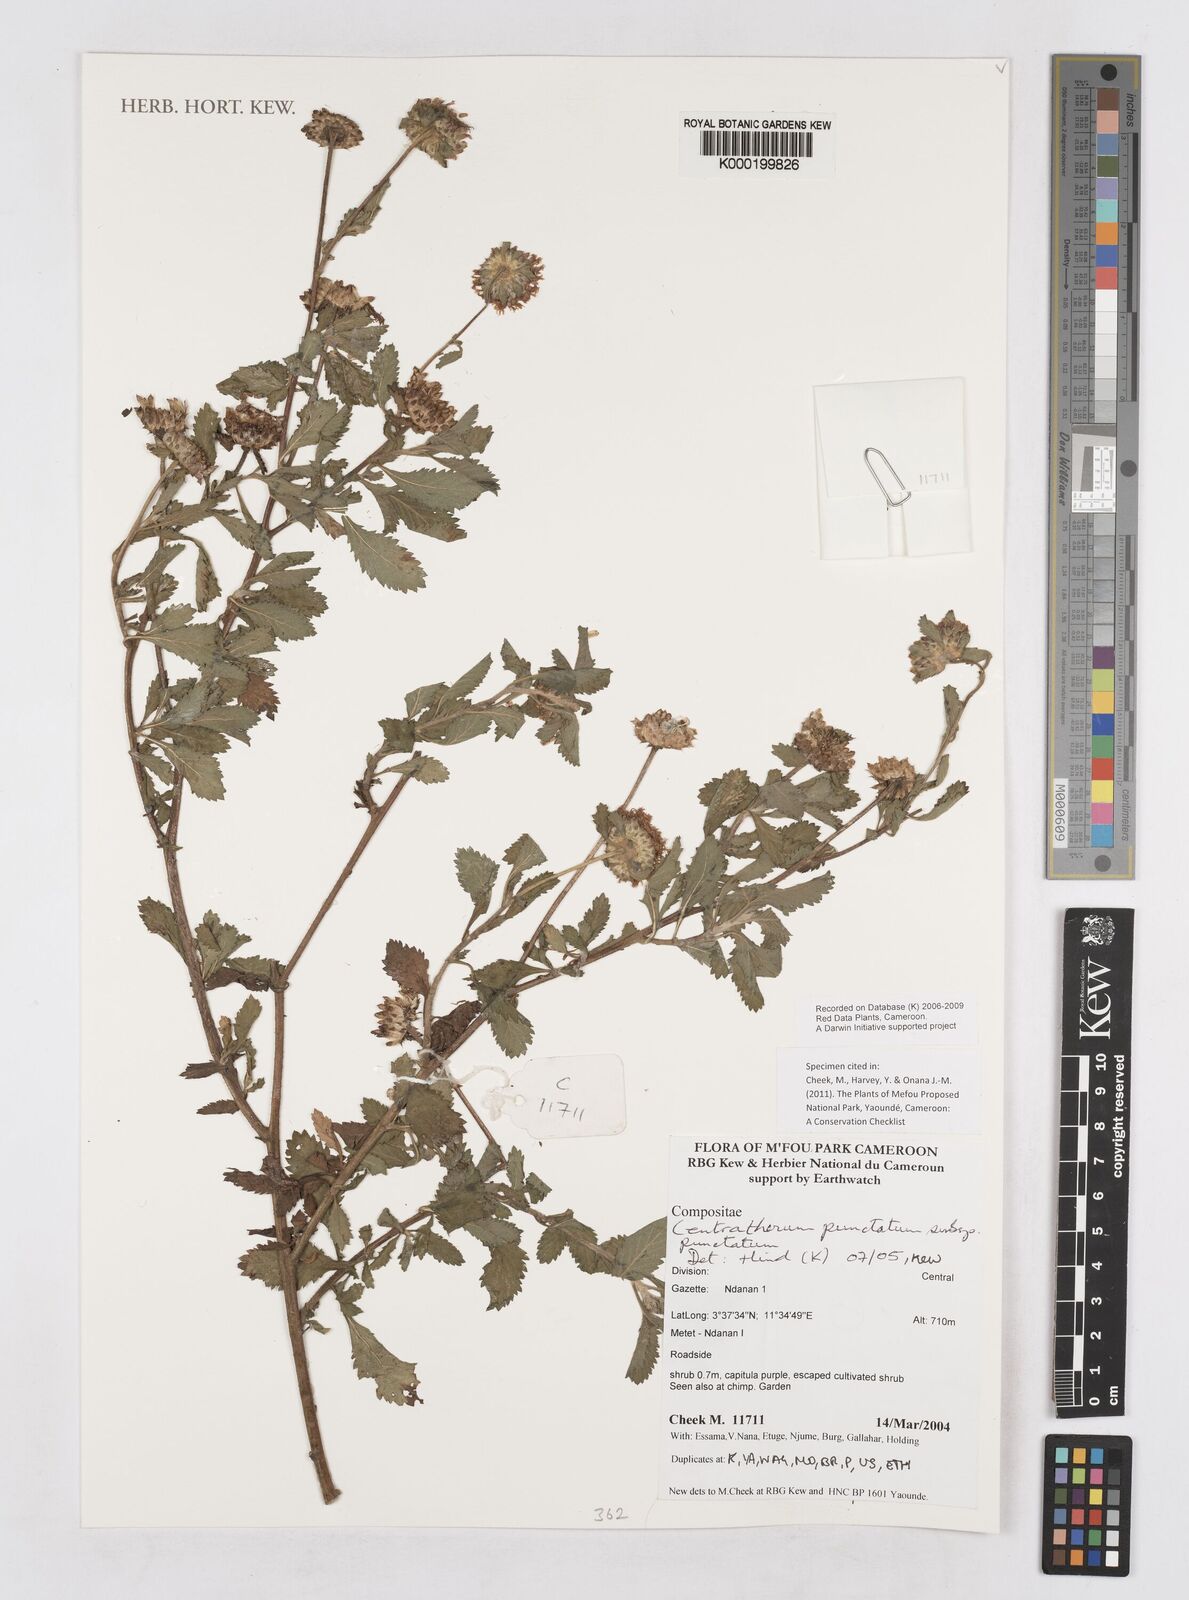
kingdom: Plantae
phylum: Tracheophyta
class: Magnoliopsida
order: Asterales
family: Asteraceae
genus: Centratherum
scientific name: Centratherum punctatum
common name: Larkdaisy
